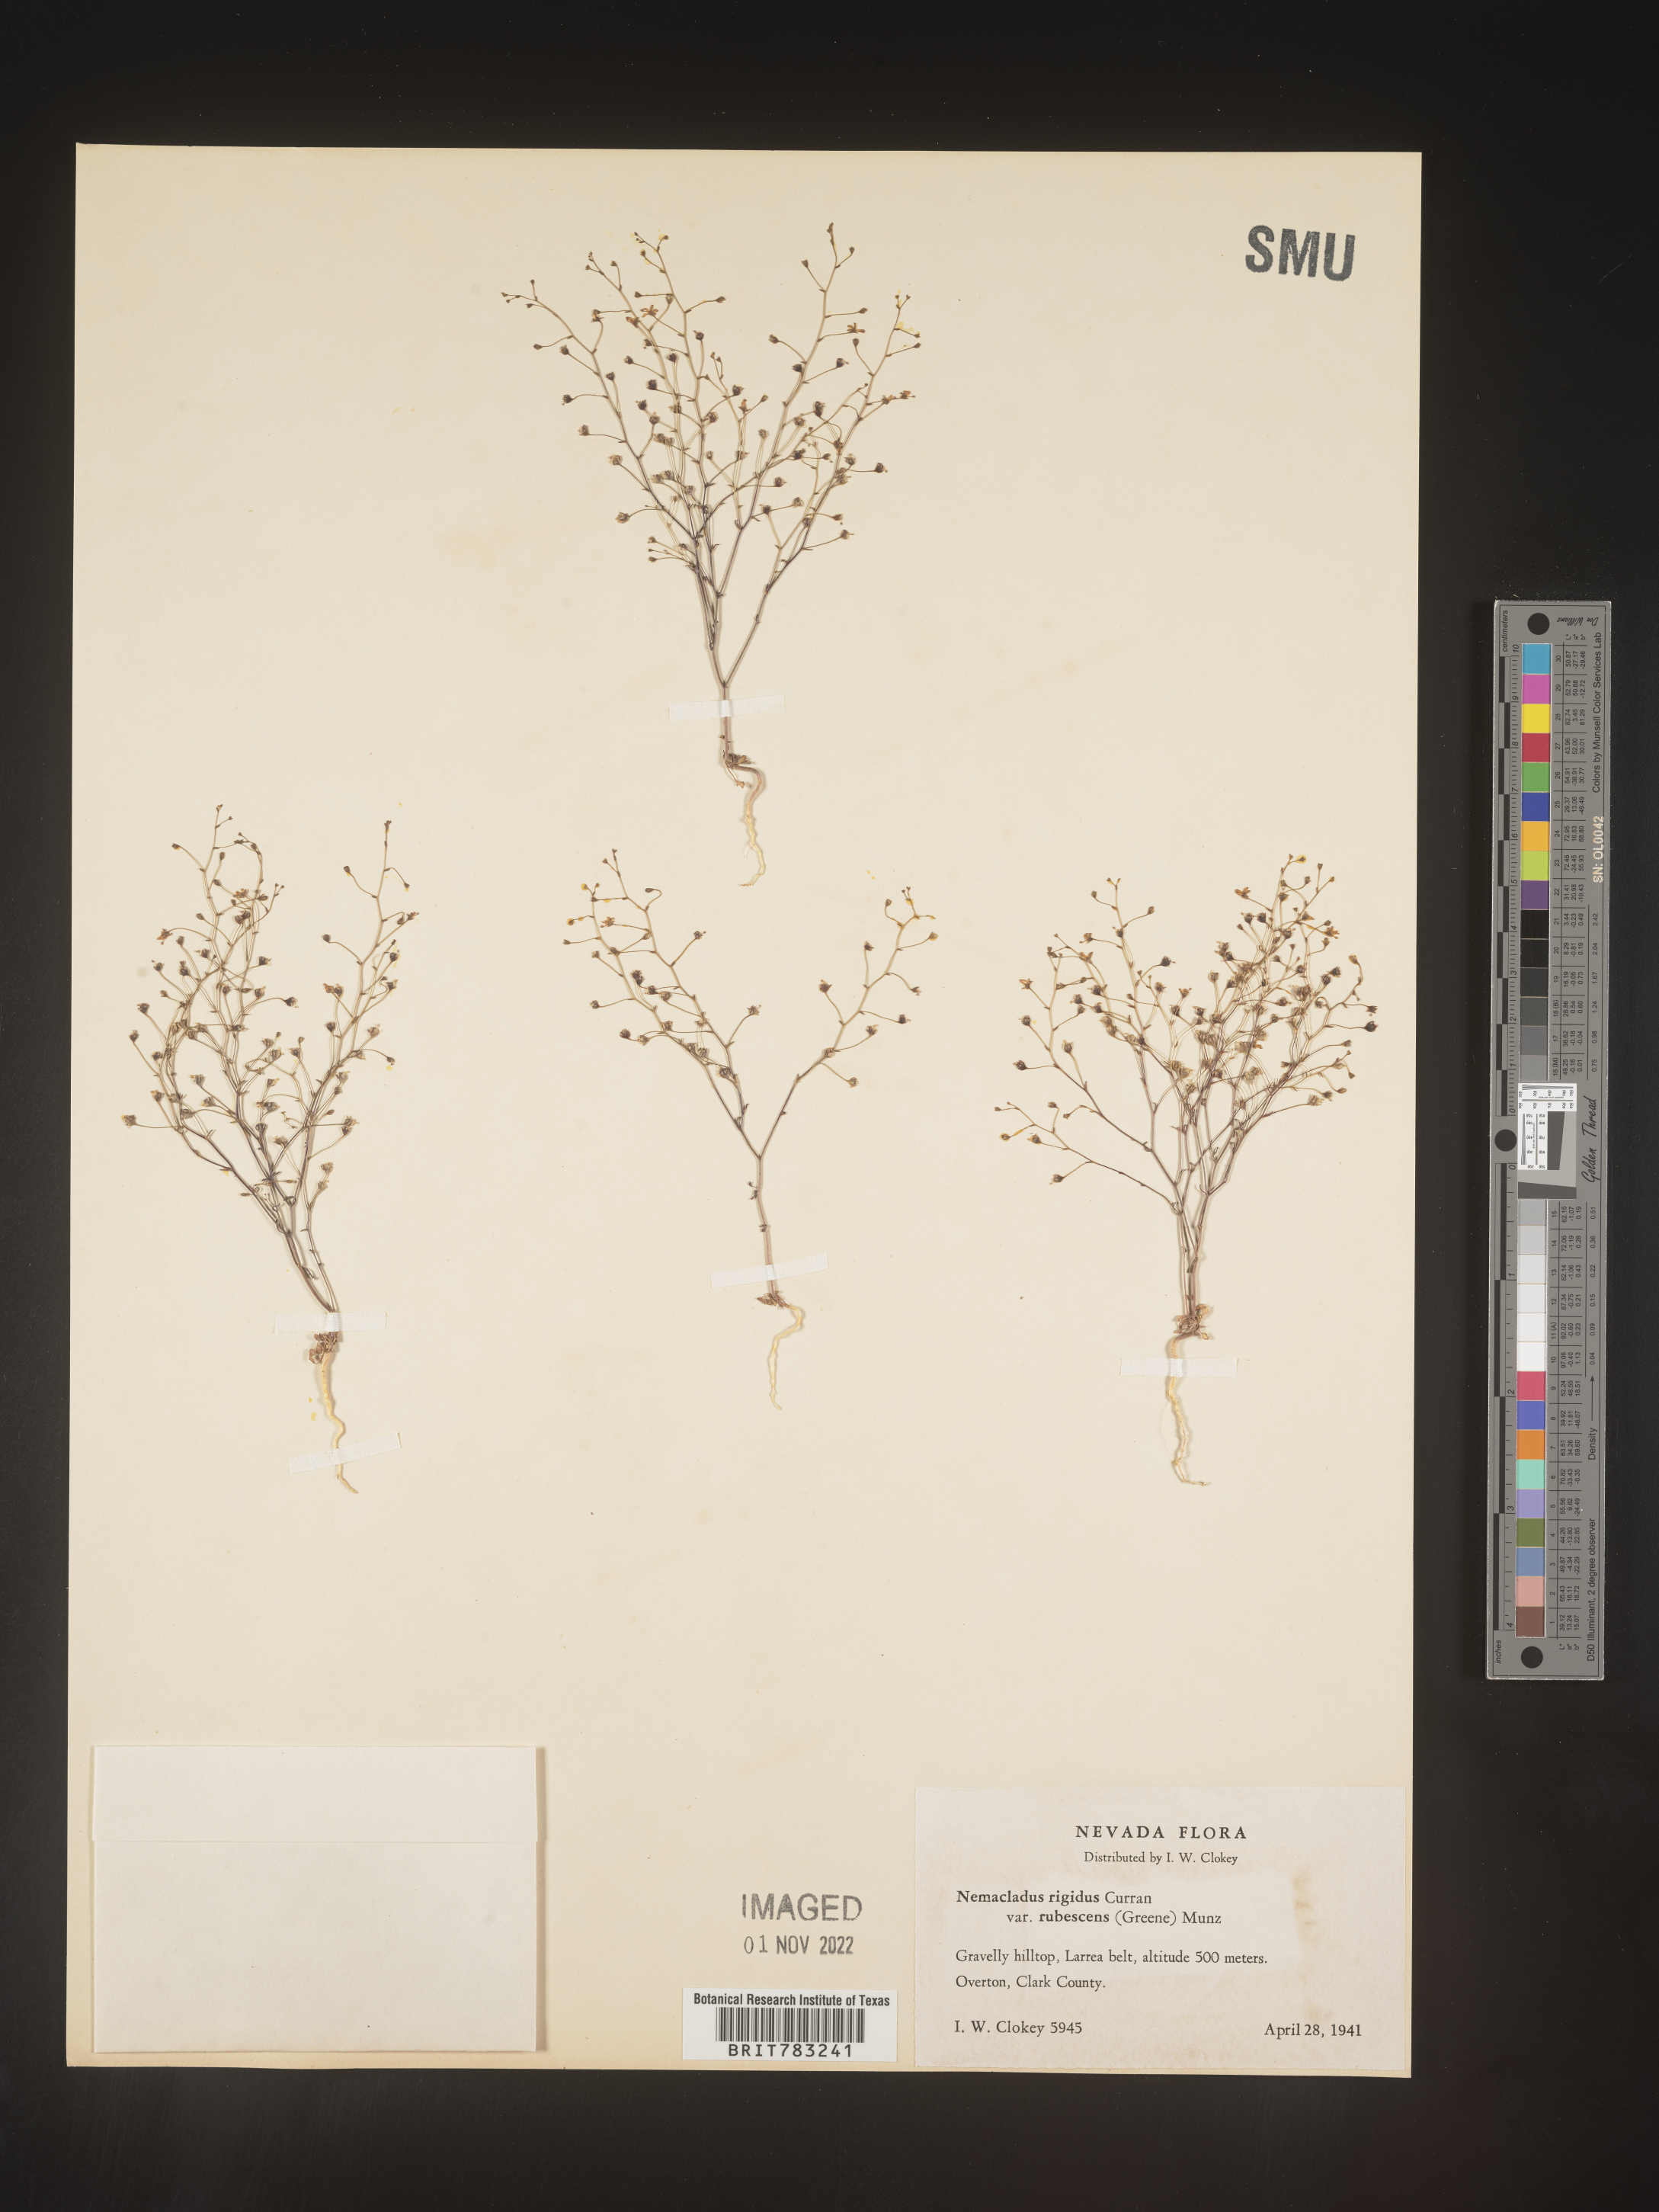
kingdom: Plantae
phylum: Tracheophyta
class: Magnoliopsida
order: Asterales
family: Campanulaceae
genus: Nemacladus
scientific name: Nemacladus
